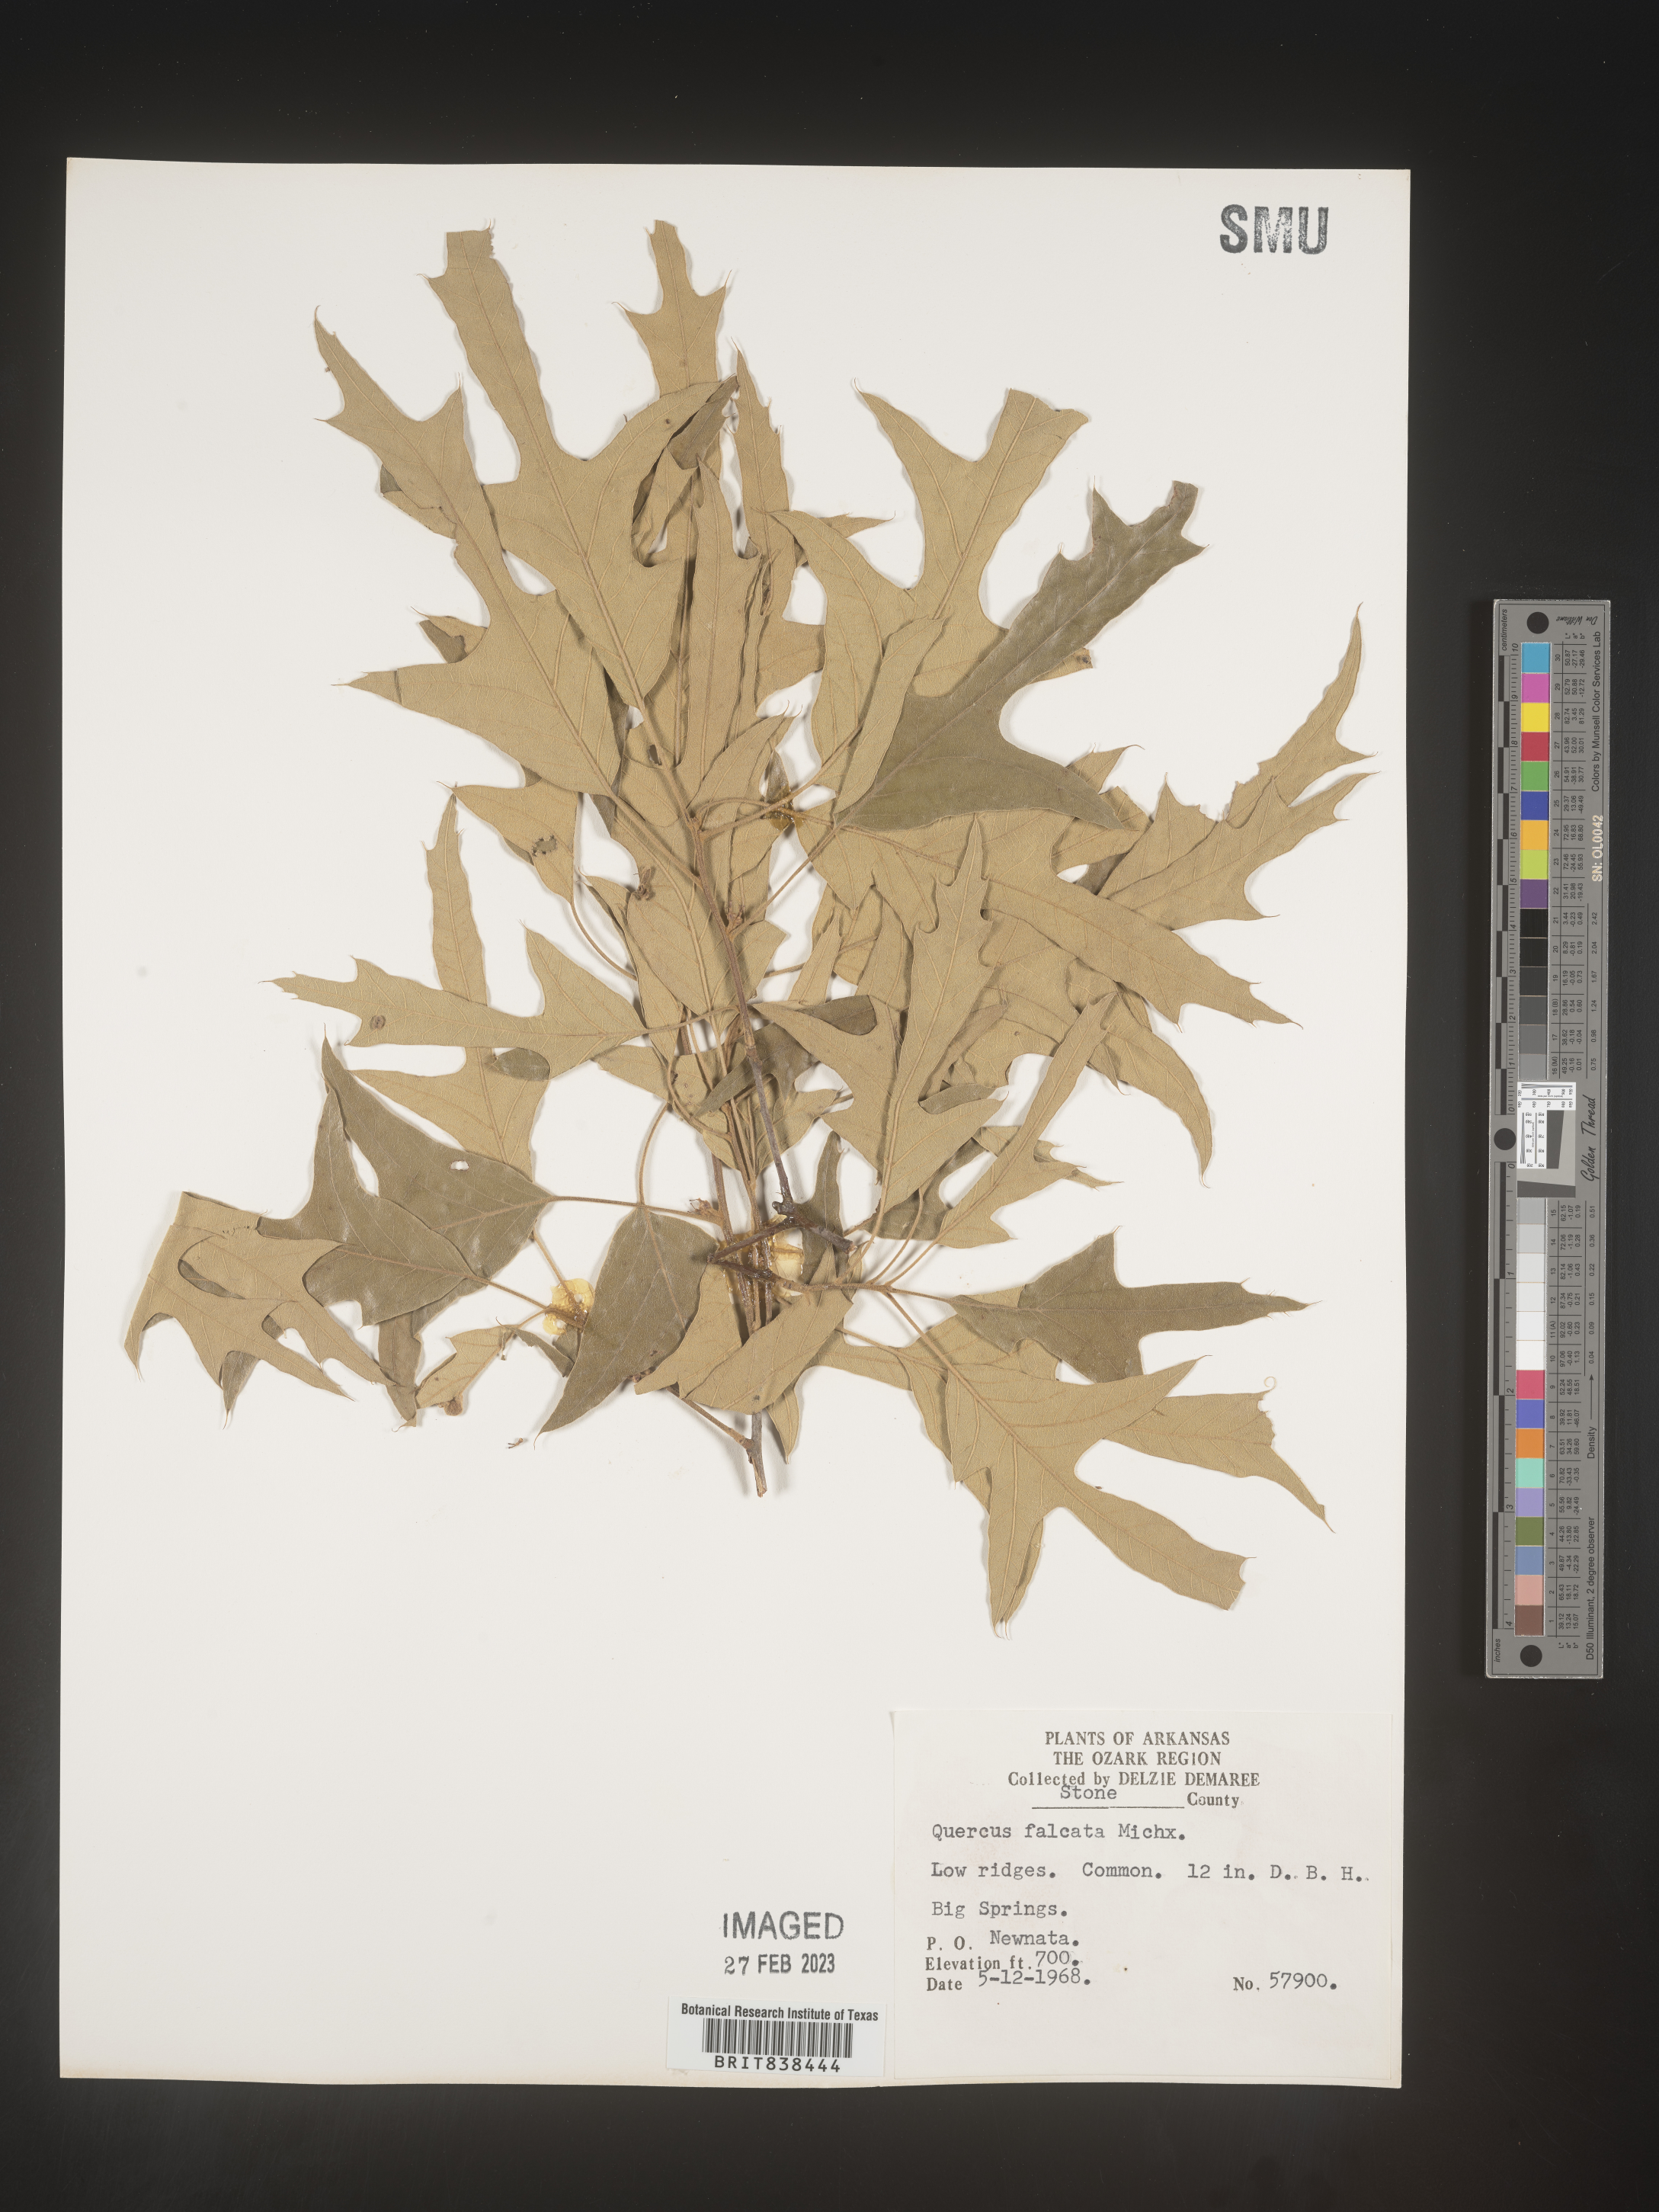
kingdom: Plantae
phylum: Tracheophyta
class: Magnoliopsida
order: Fagales
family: Fagaceae
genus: Quercus
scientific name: Quercus falcata
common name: Southern red oak
